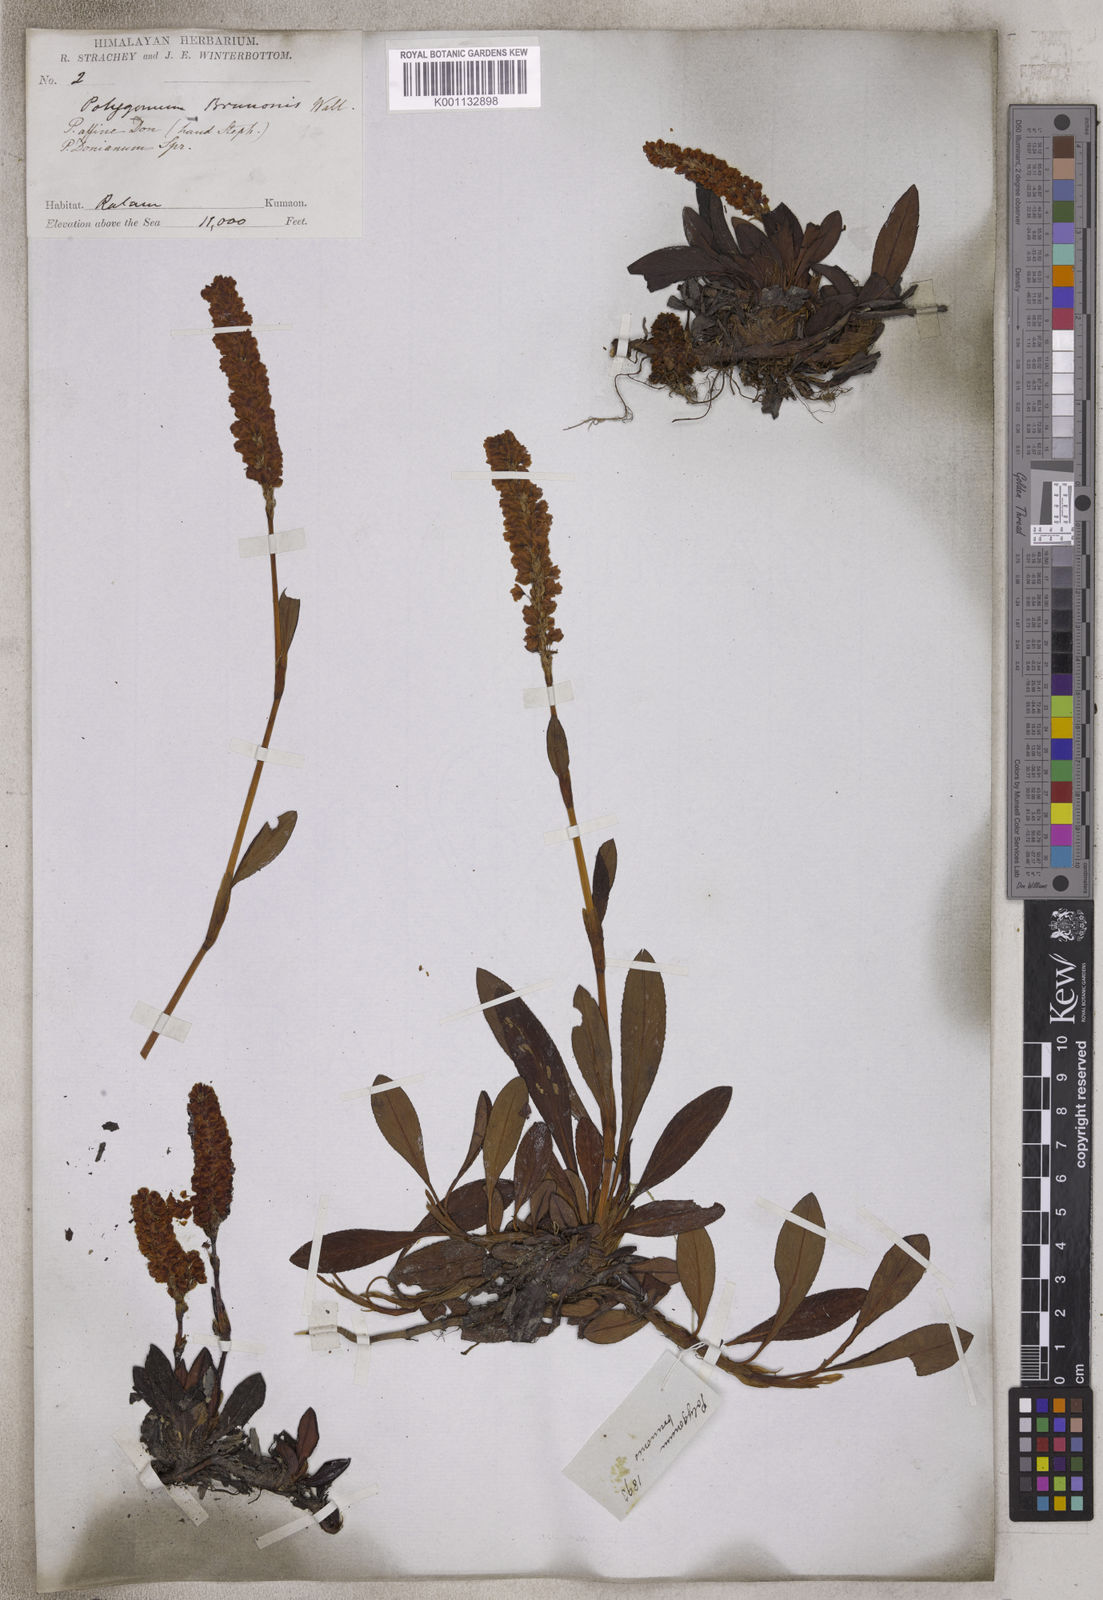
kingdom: Plantae
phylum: Tracheophyta
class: Magnoliopsida
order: Caryophyllales
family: Polygonaceae
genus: Polygonum
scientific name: Polygonum
